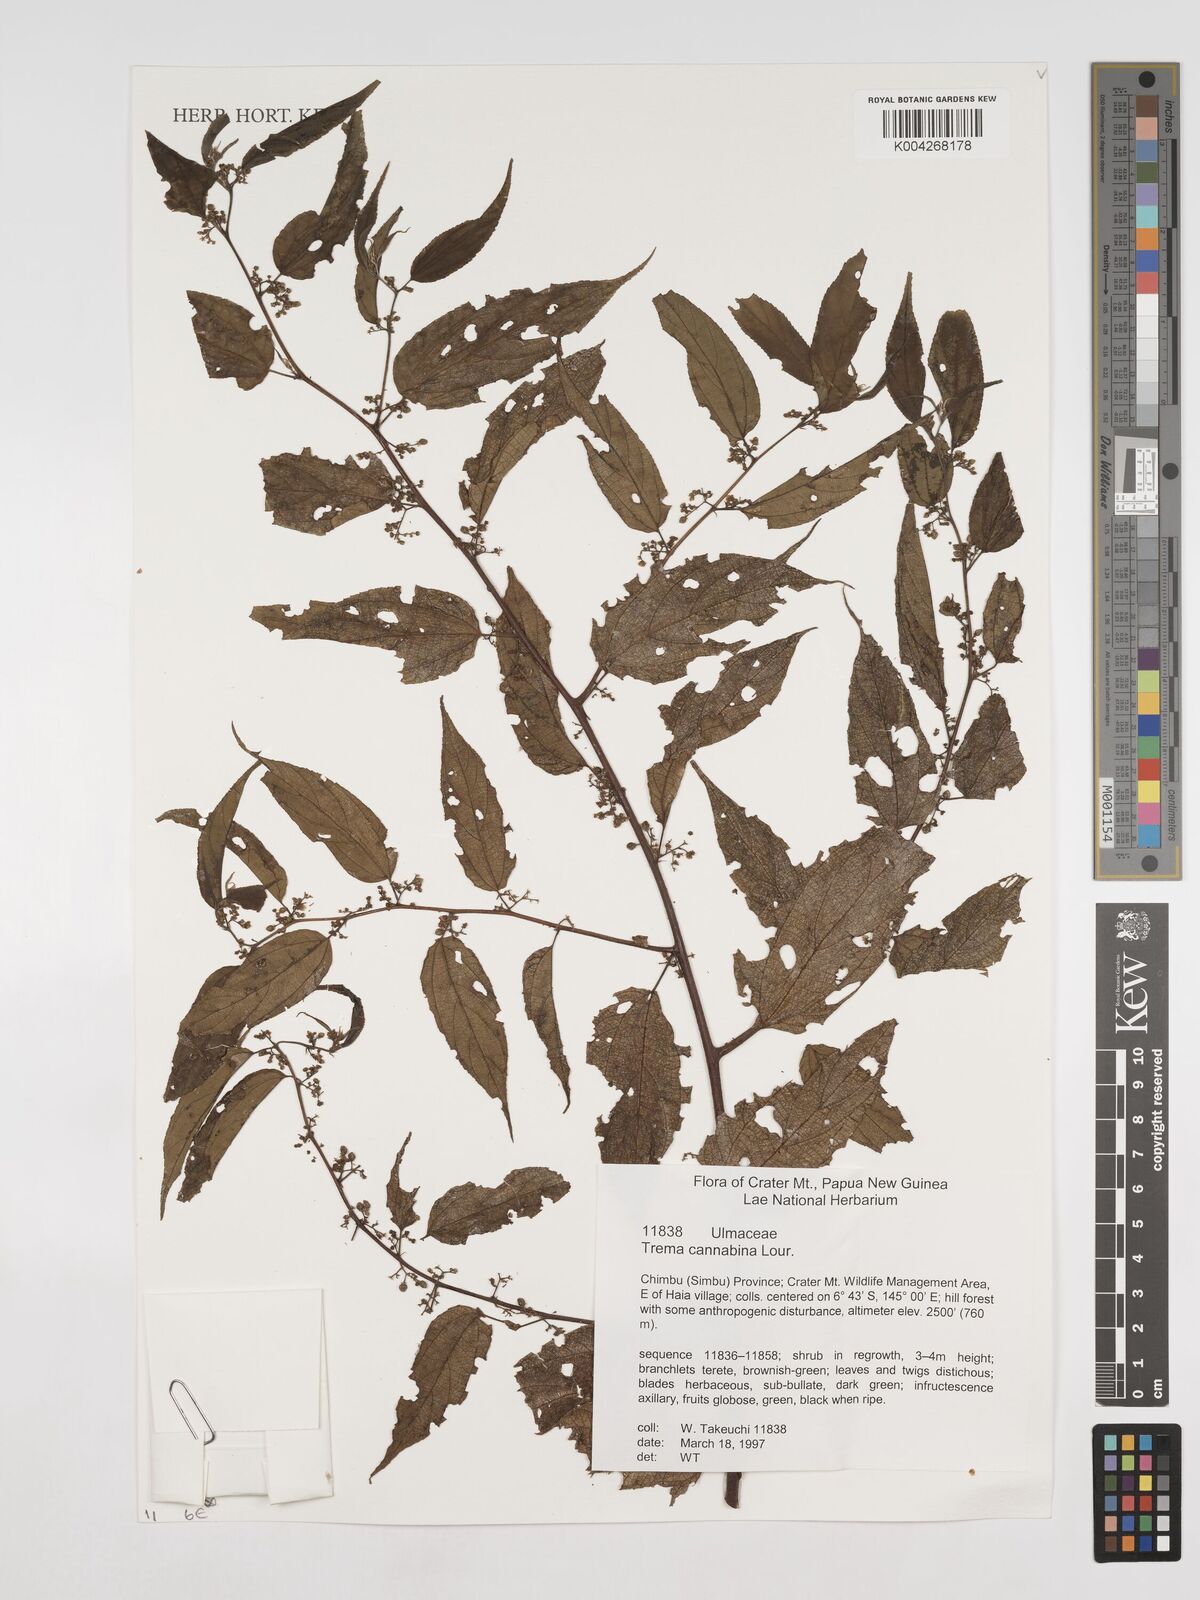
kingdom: Plantae
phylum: Tracheophyta
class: Magnoliopsida
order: Rosales
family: Cannabaceae
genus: Trema
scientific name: Trema
